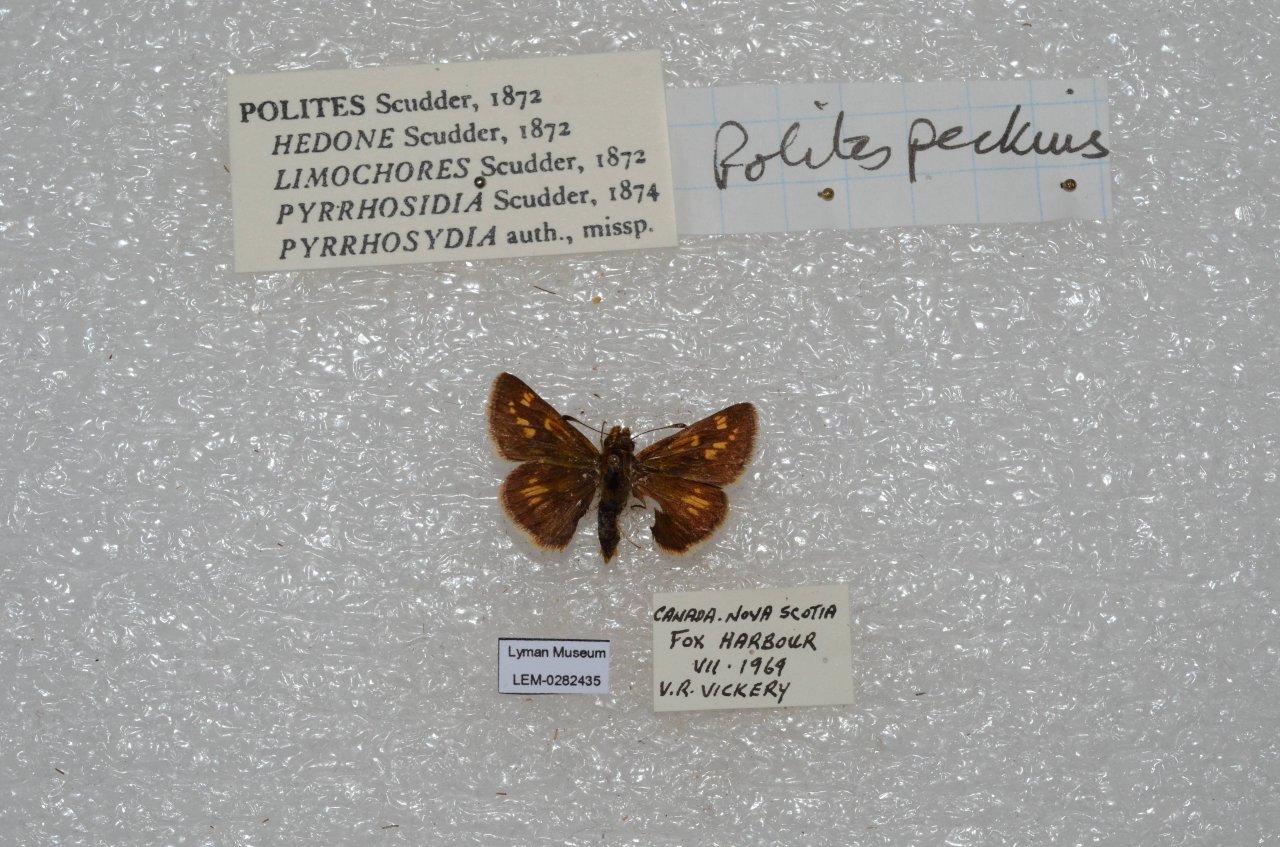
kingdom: Animalia
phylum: Arthropoda
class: Insecta
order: Lepidoptera
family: Hesperiidae
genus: Polites
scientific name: Polites coras
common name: Peck's Skipper
